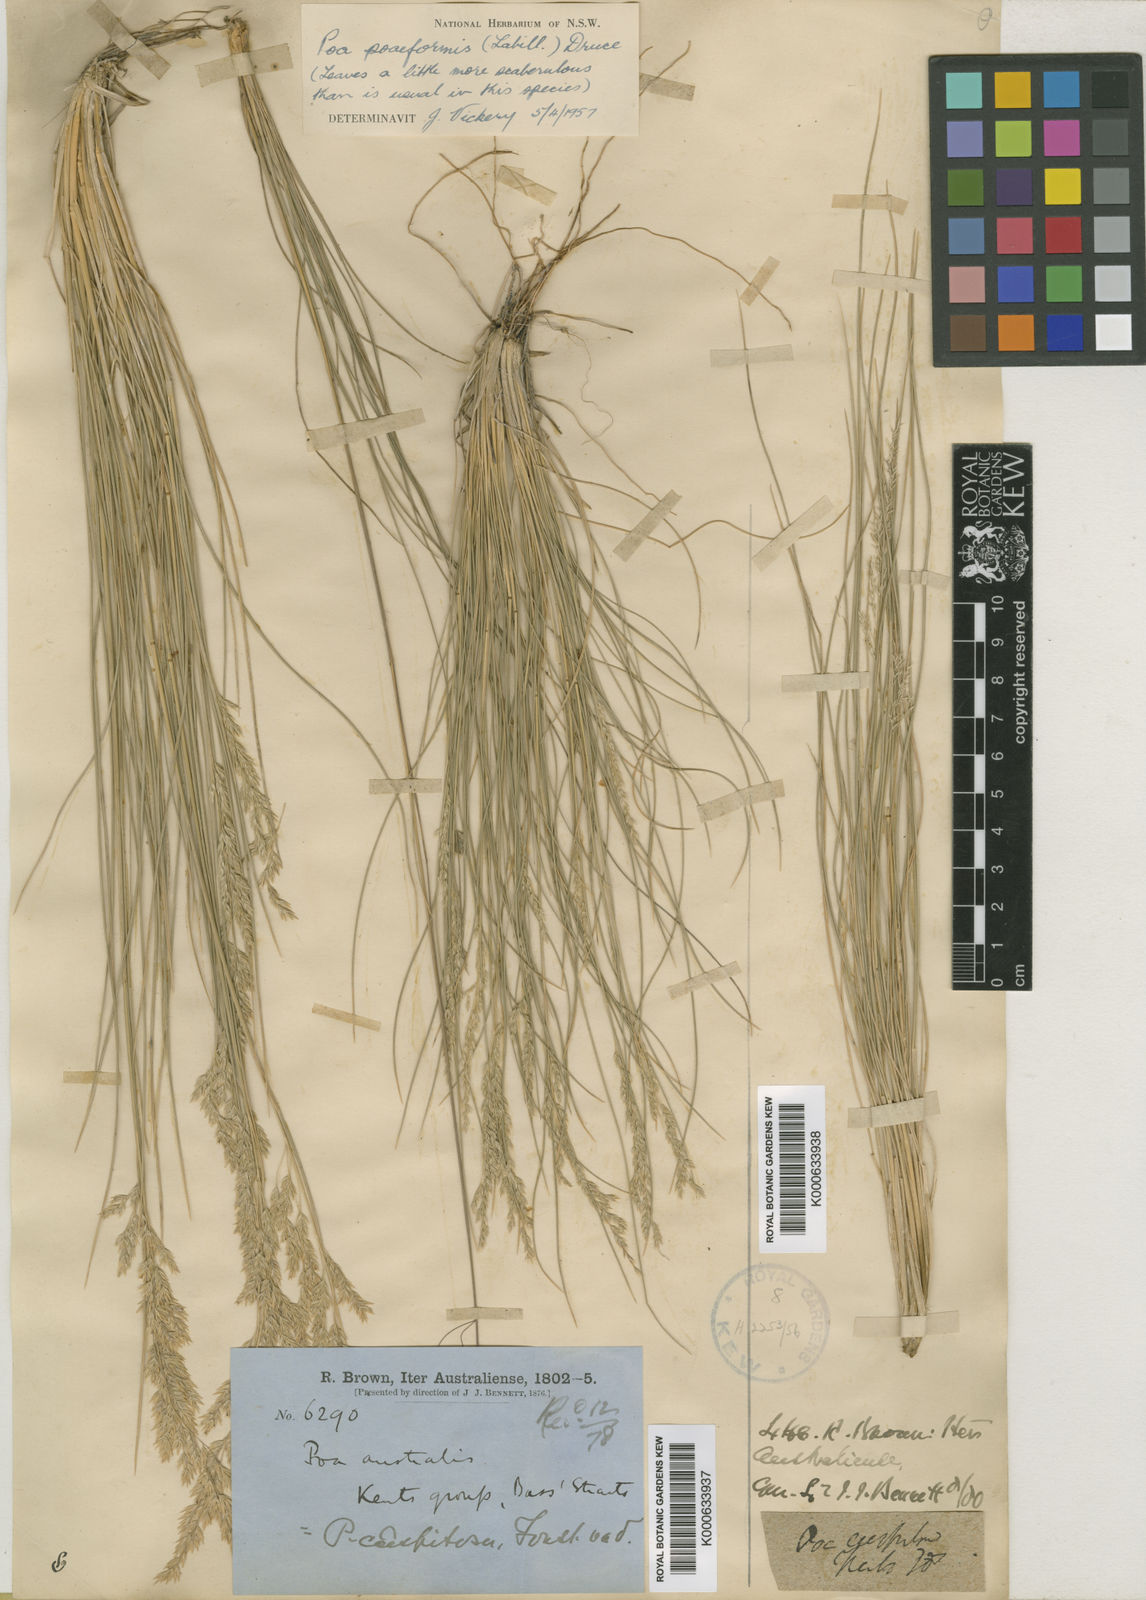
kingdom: Plantae
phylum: Tracheophyta
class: Liliopsida
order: Poales
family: Poaceae
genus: Poa
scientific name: Poa sieberiana
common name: Tussock poa
